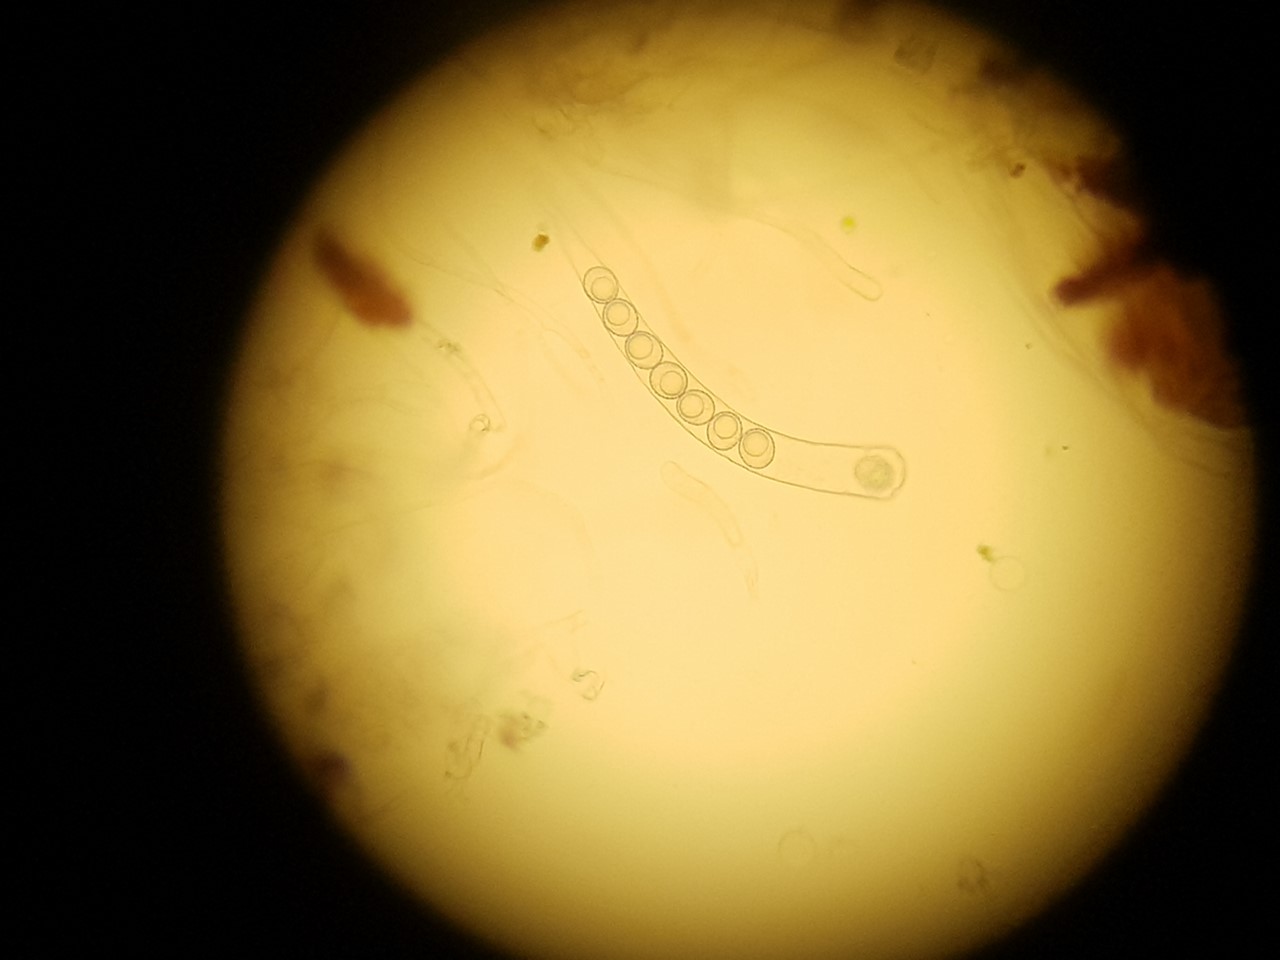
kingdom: Fungi
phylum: Ascomycota
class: Pezizomycetes
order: Pezizales
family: Pyronemataceae
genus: Octospora
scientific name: Octospora affinis
